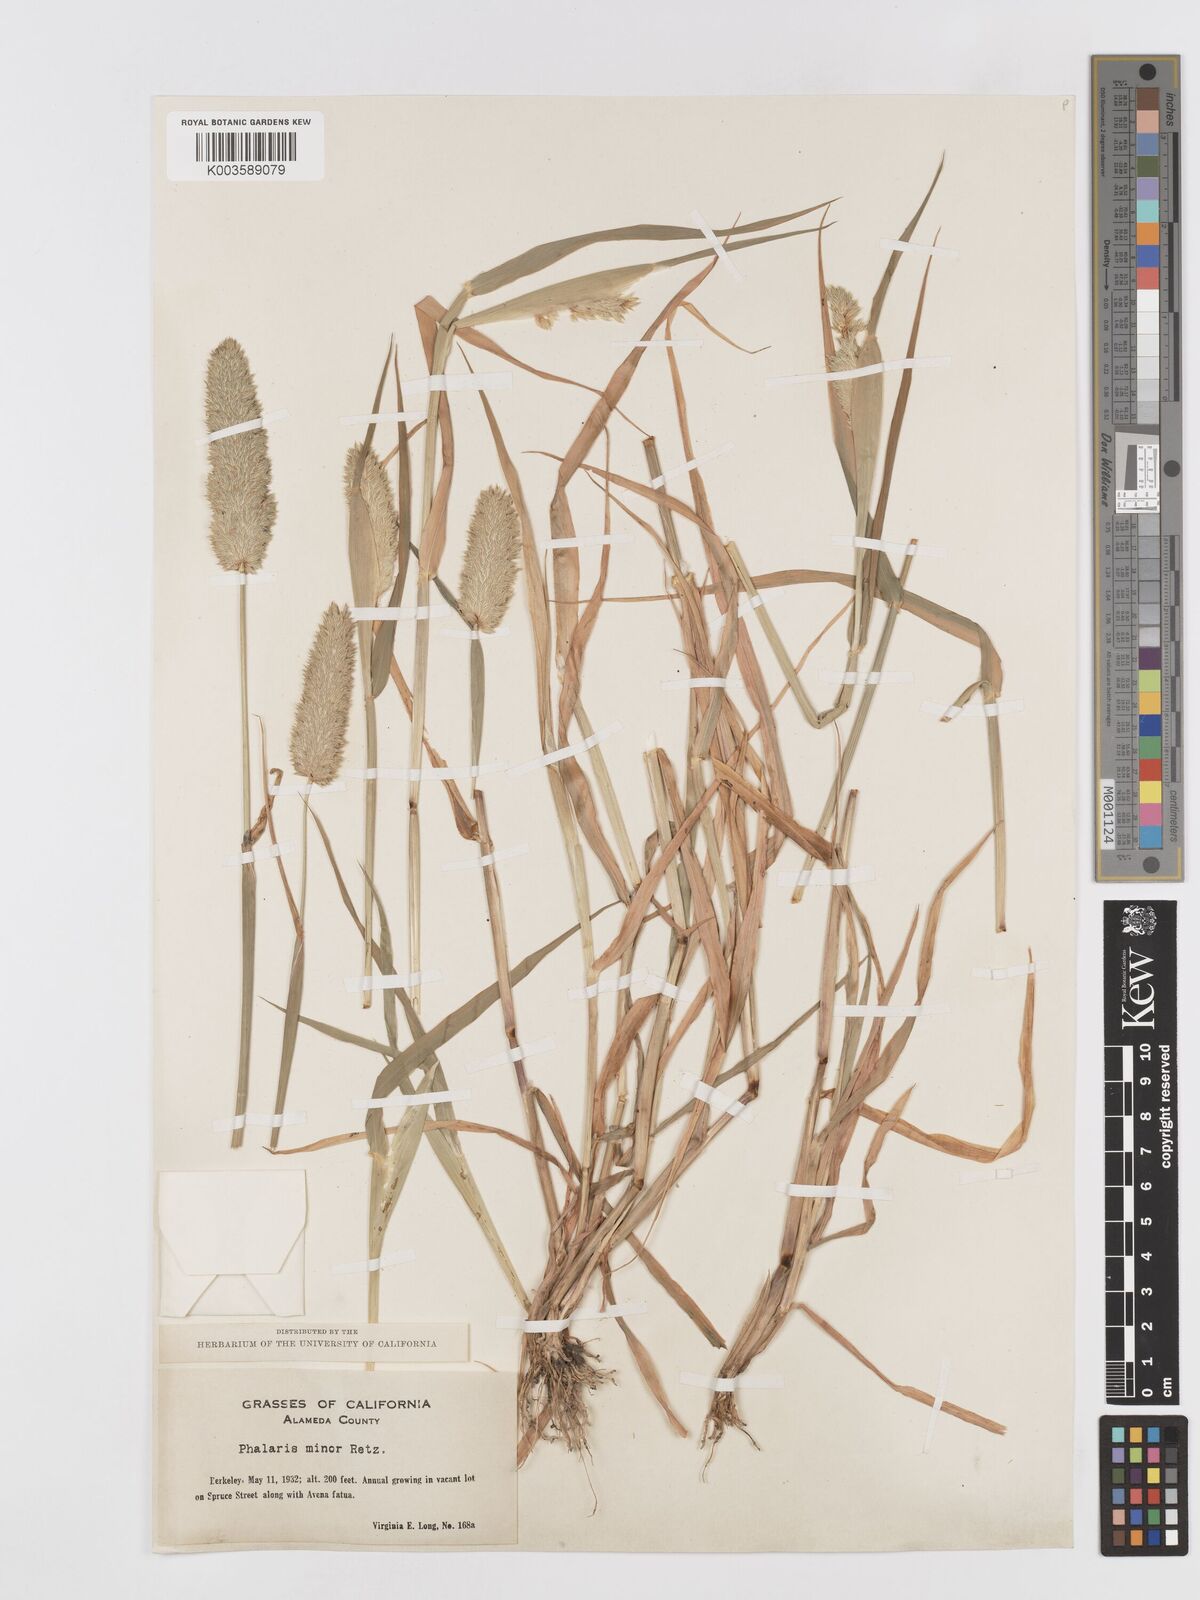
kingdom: Plantae
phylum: Tracheophyta
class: Liliopsida
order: Poales
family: Poaceae
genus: Phalaris
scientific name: Phalaris minor
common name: Littleseed canarygrass
